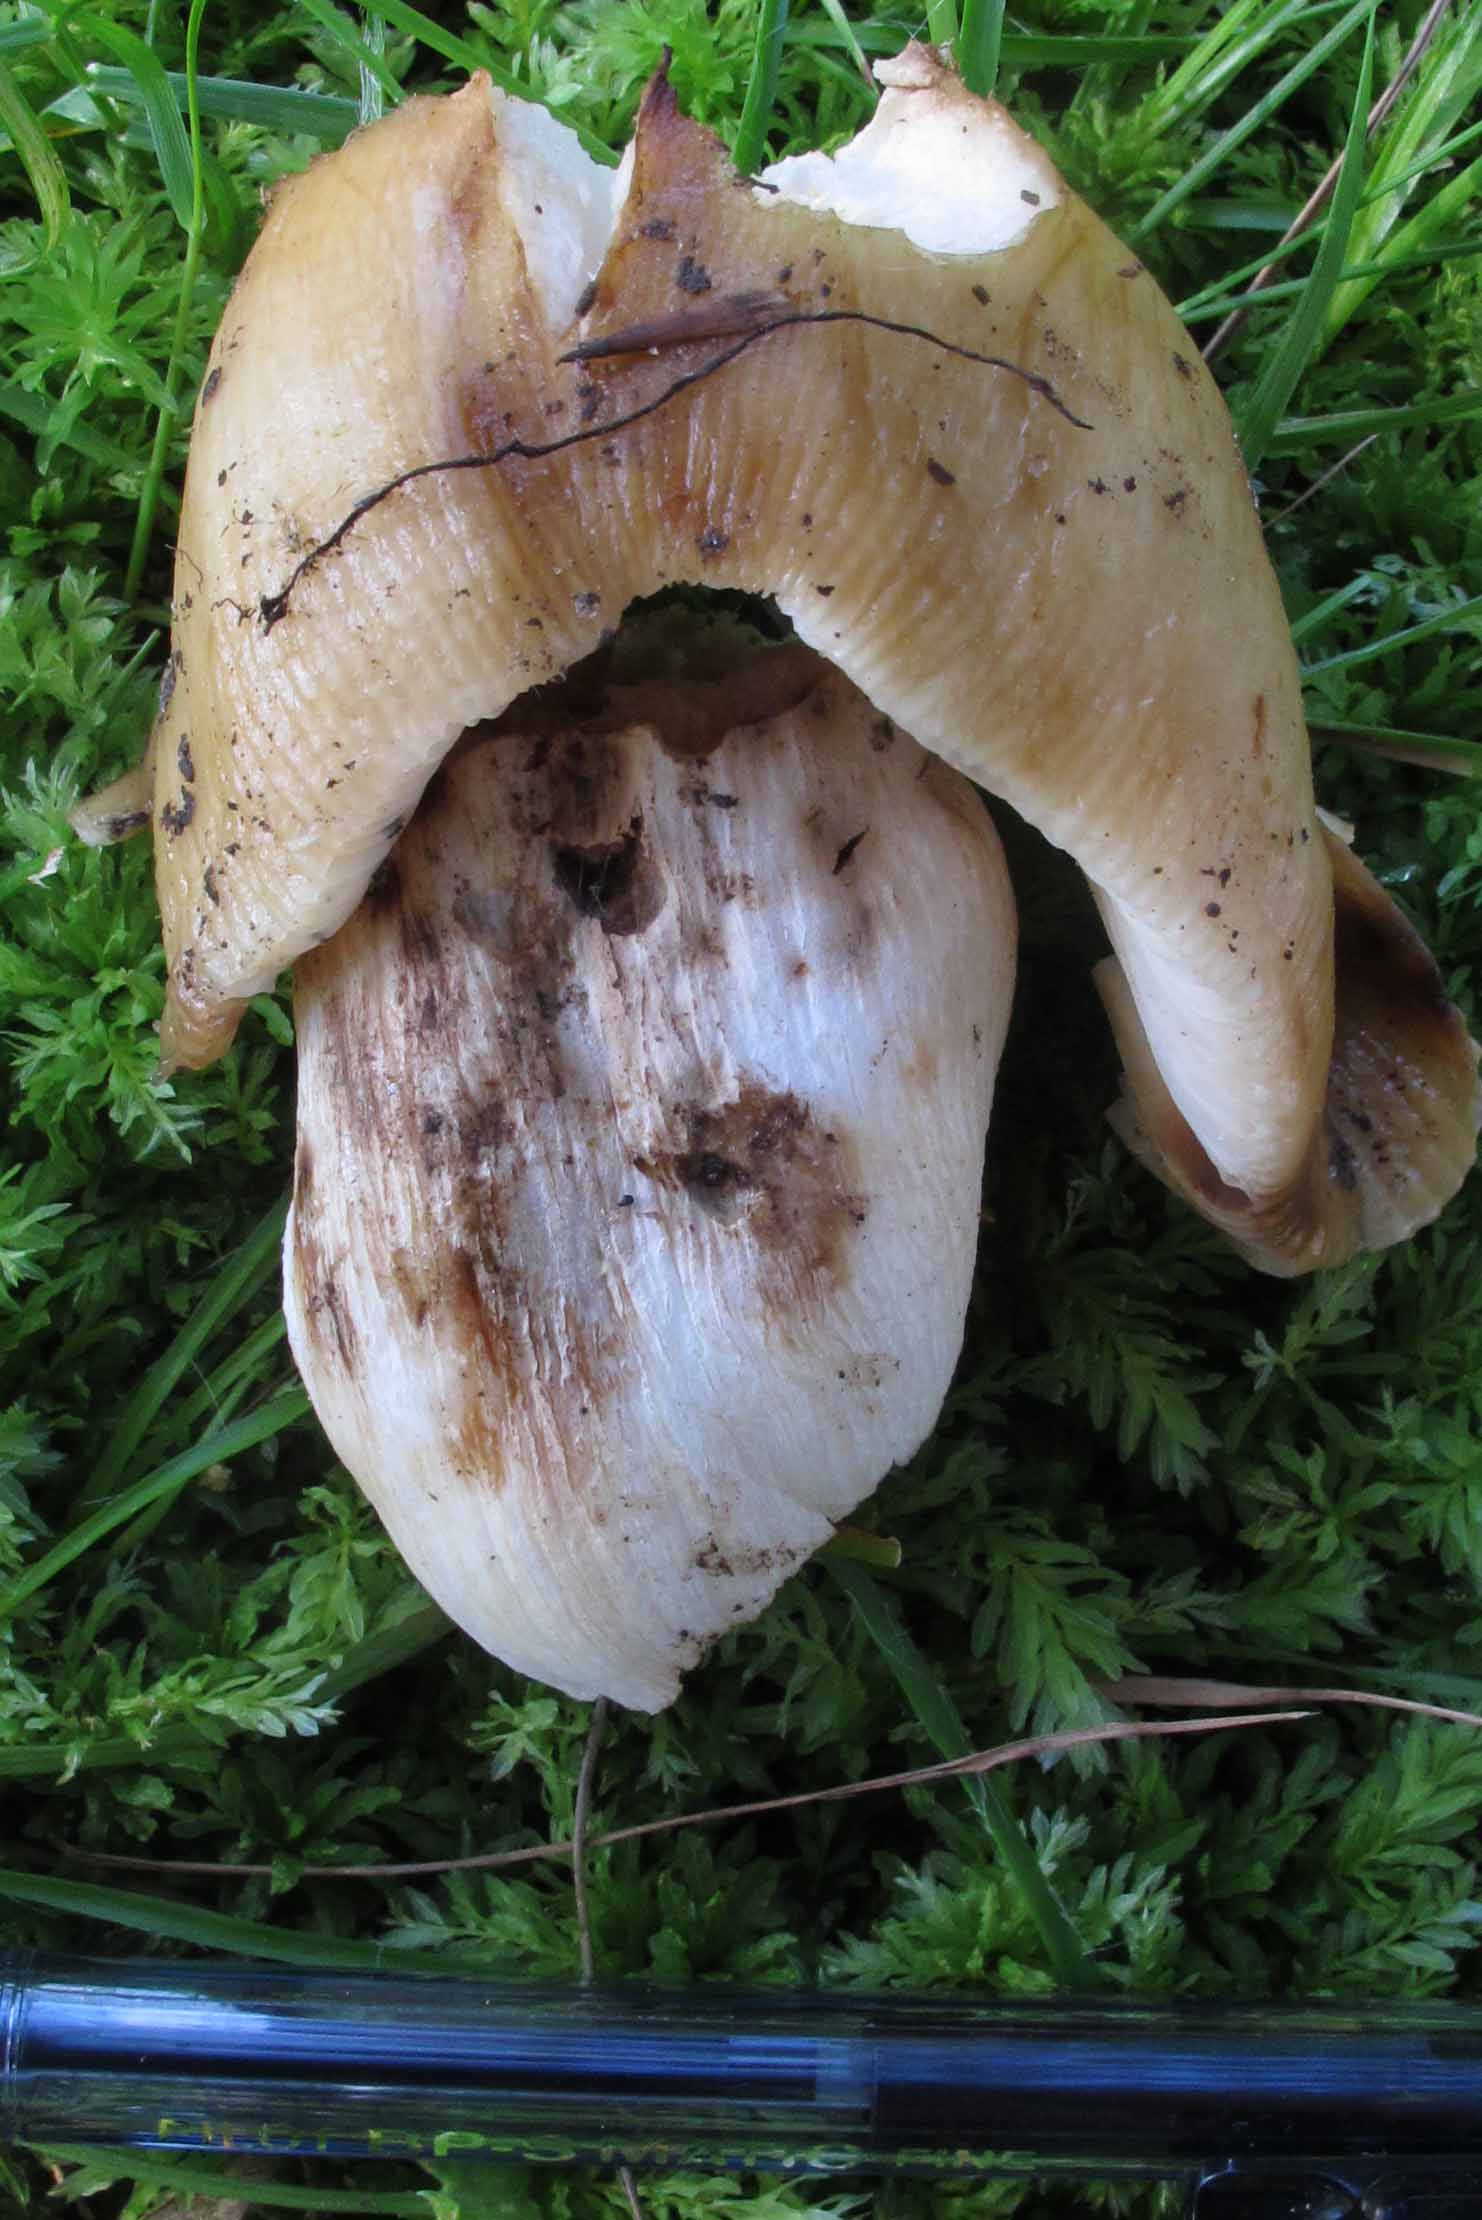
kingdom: Fungi
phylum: Basidiomycota
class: Agaricomycetes
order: Russulales
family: Russulaceae
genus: Russula
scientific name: Russula grata
